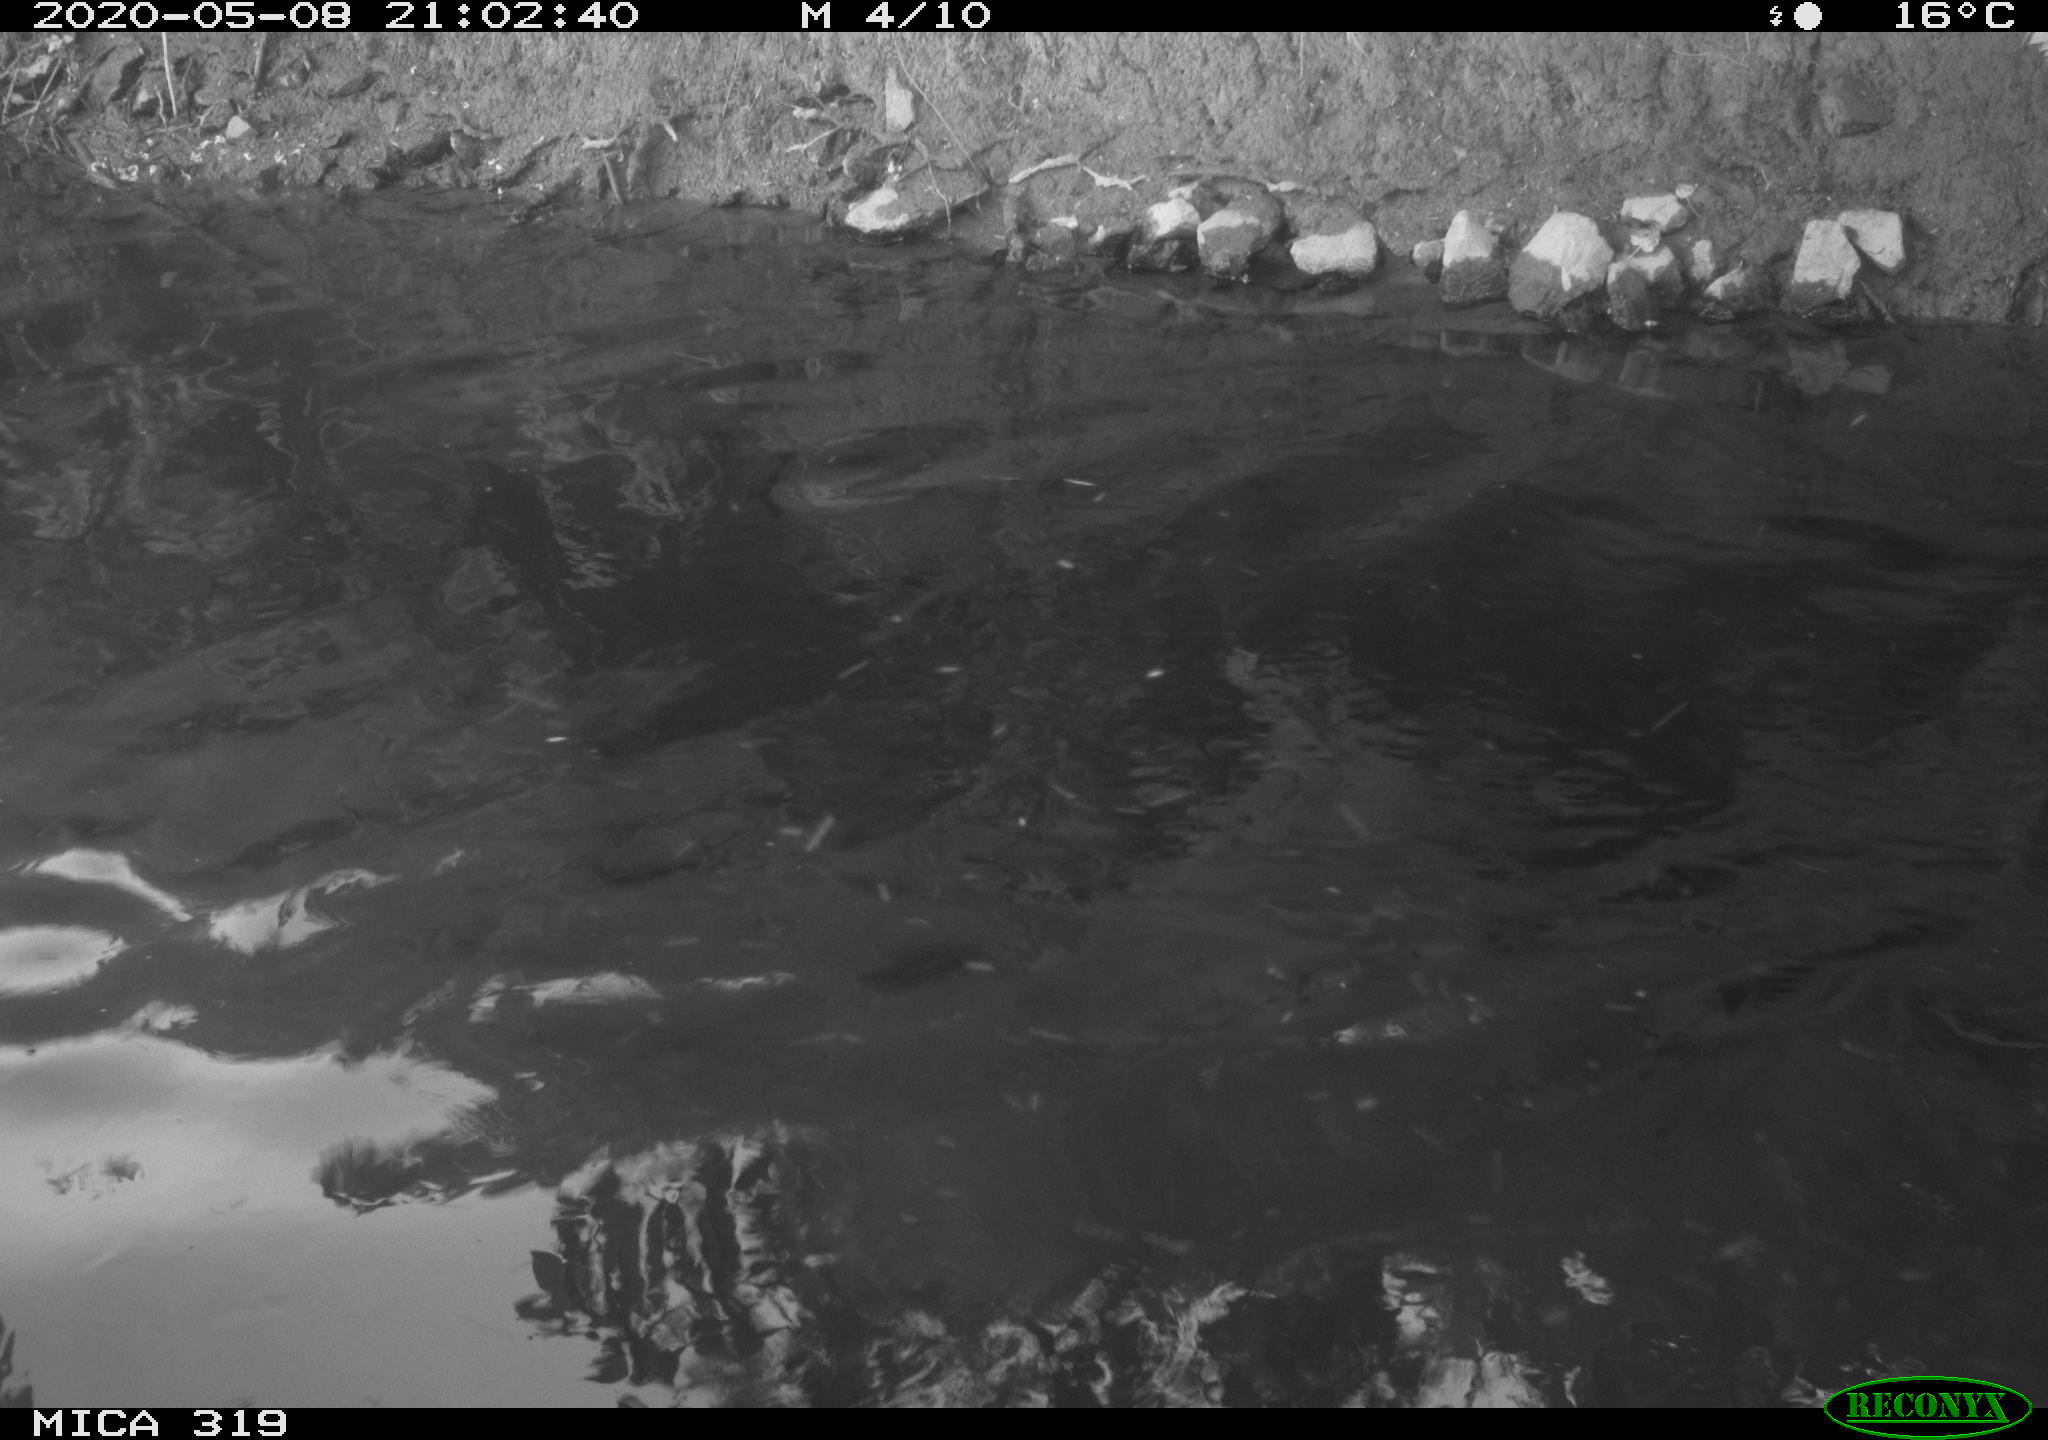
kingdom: Animalia
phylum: Chordata
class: Aves
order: Anseriformes
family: Anatidae
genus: Anas
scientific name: Anas platyrhynchos
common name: Mallard
